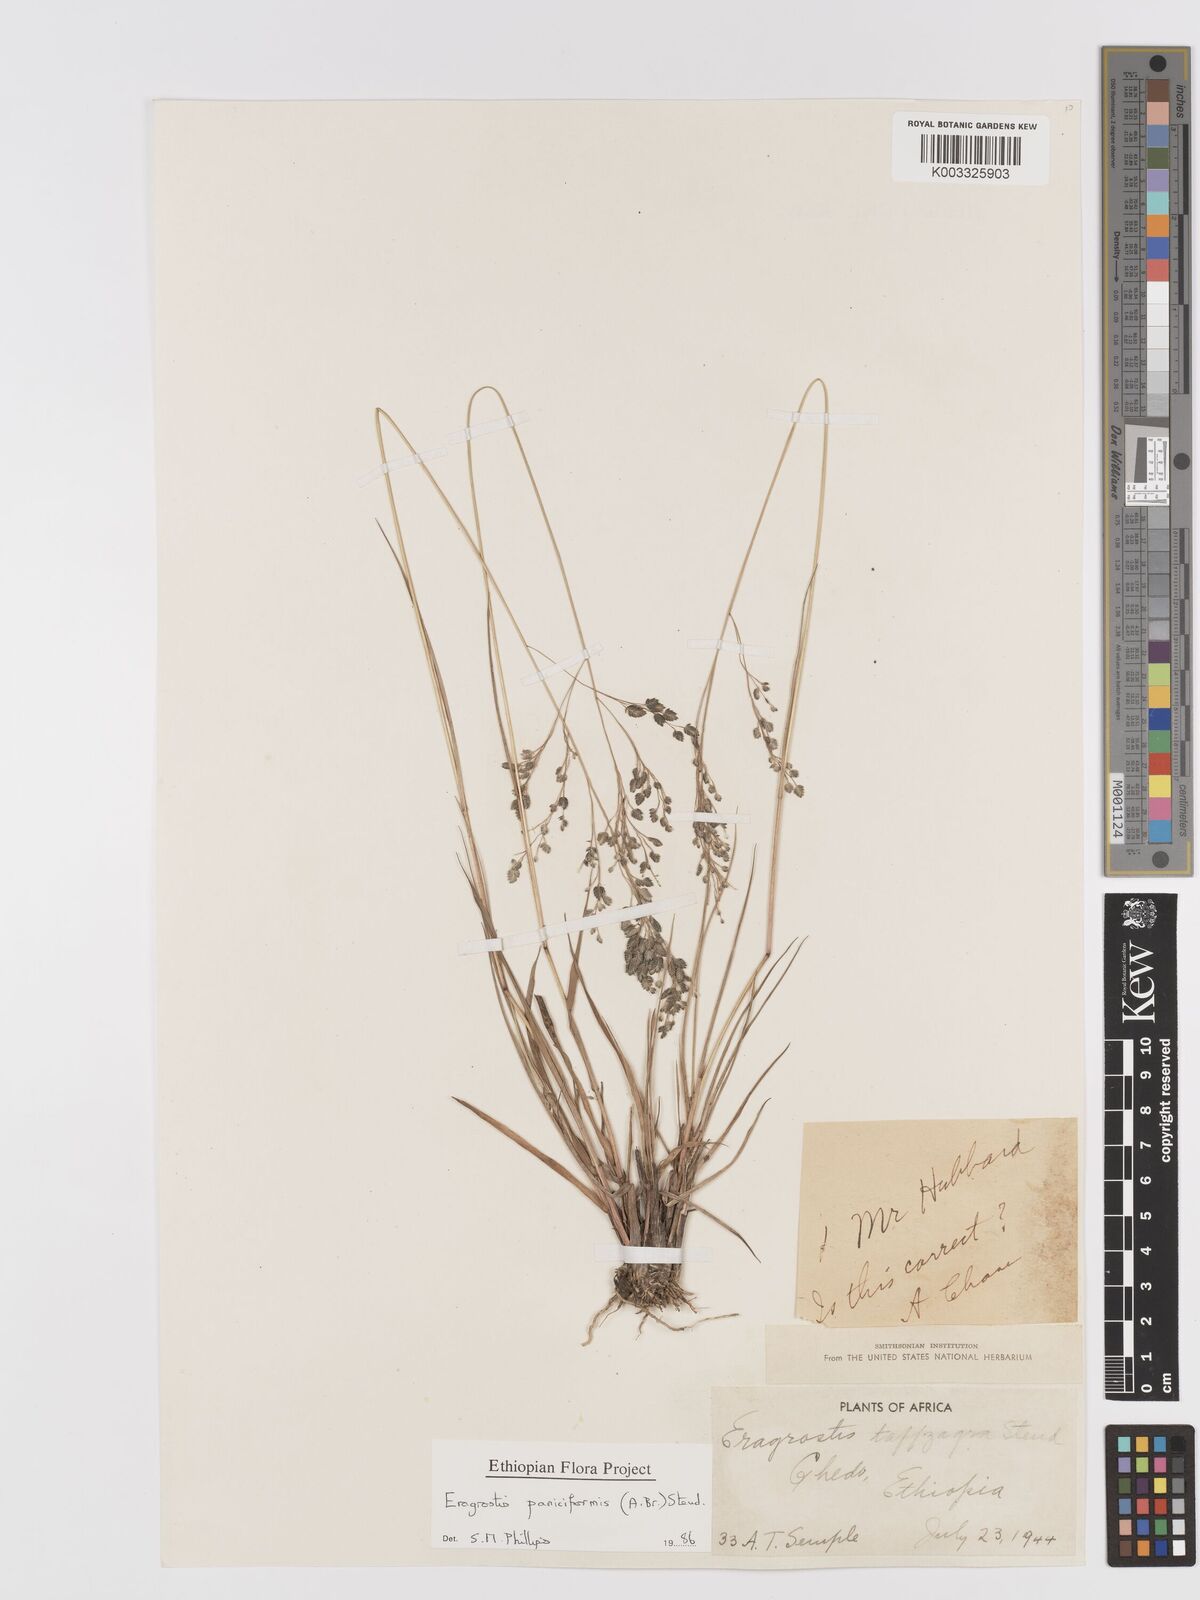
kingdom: Plantae
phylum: Tracheophyta
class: Liliopsida
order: Poales
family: Poaceae
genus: Eragrostis
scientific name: Eragrostis paniciformis
